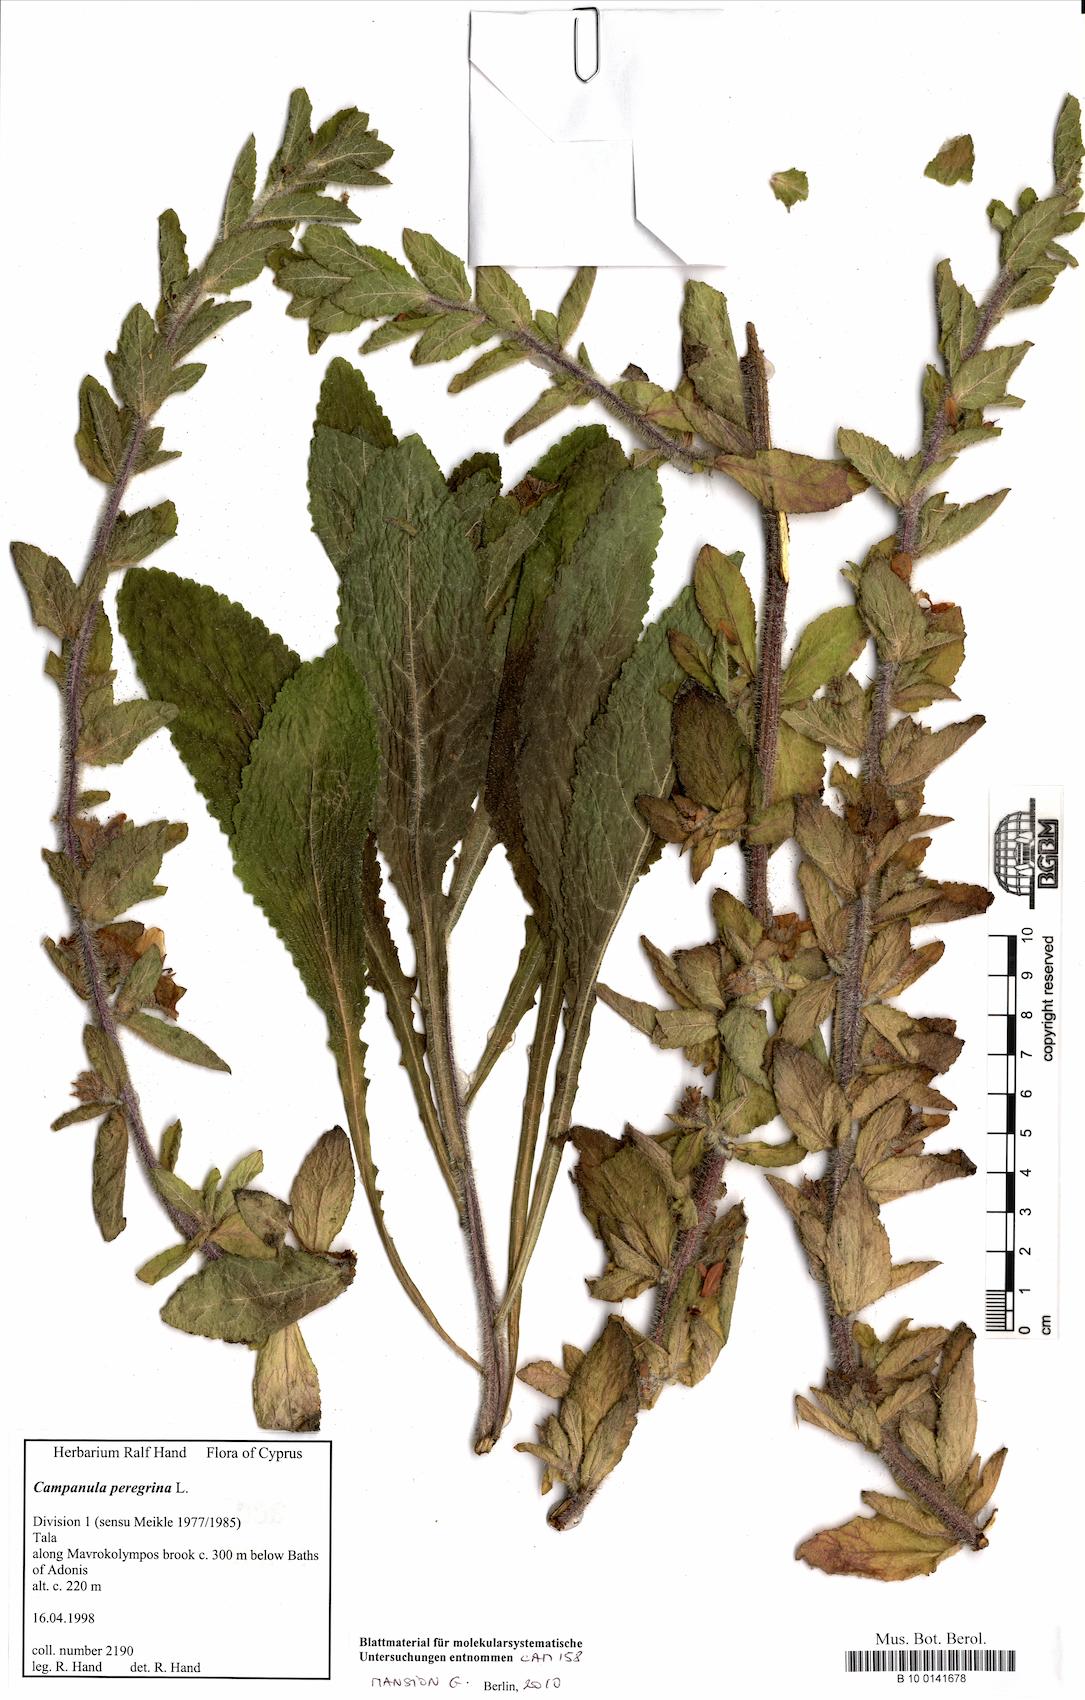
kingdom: Plantae
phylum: Tracheophyta
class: Magnoliopsida
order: Asterales
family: Campanulaceae
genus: Campanula
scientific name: Campanula peregrina
